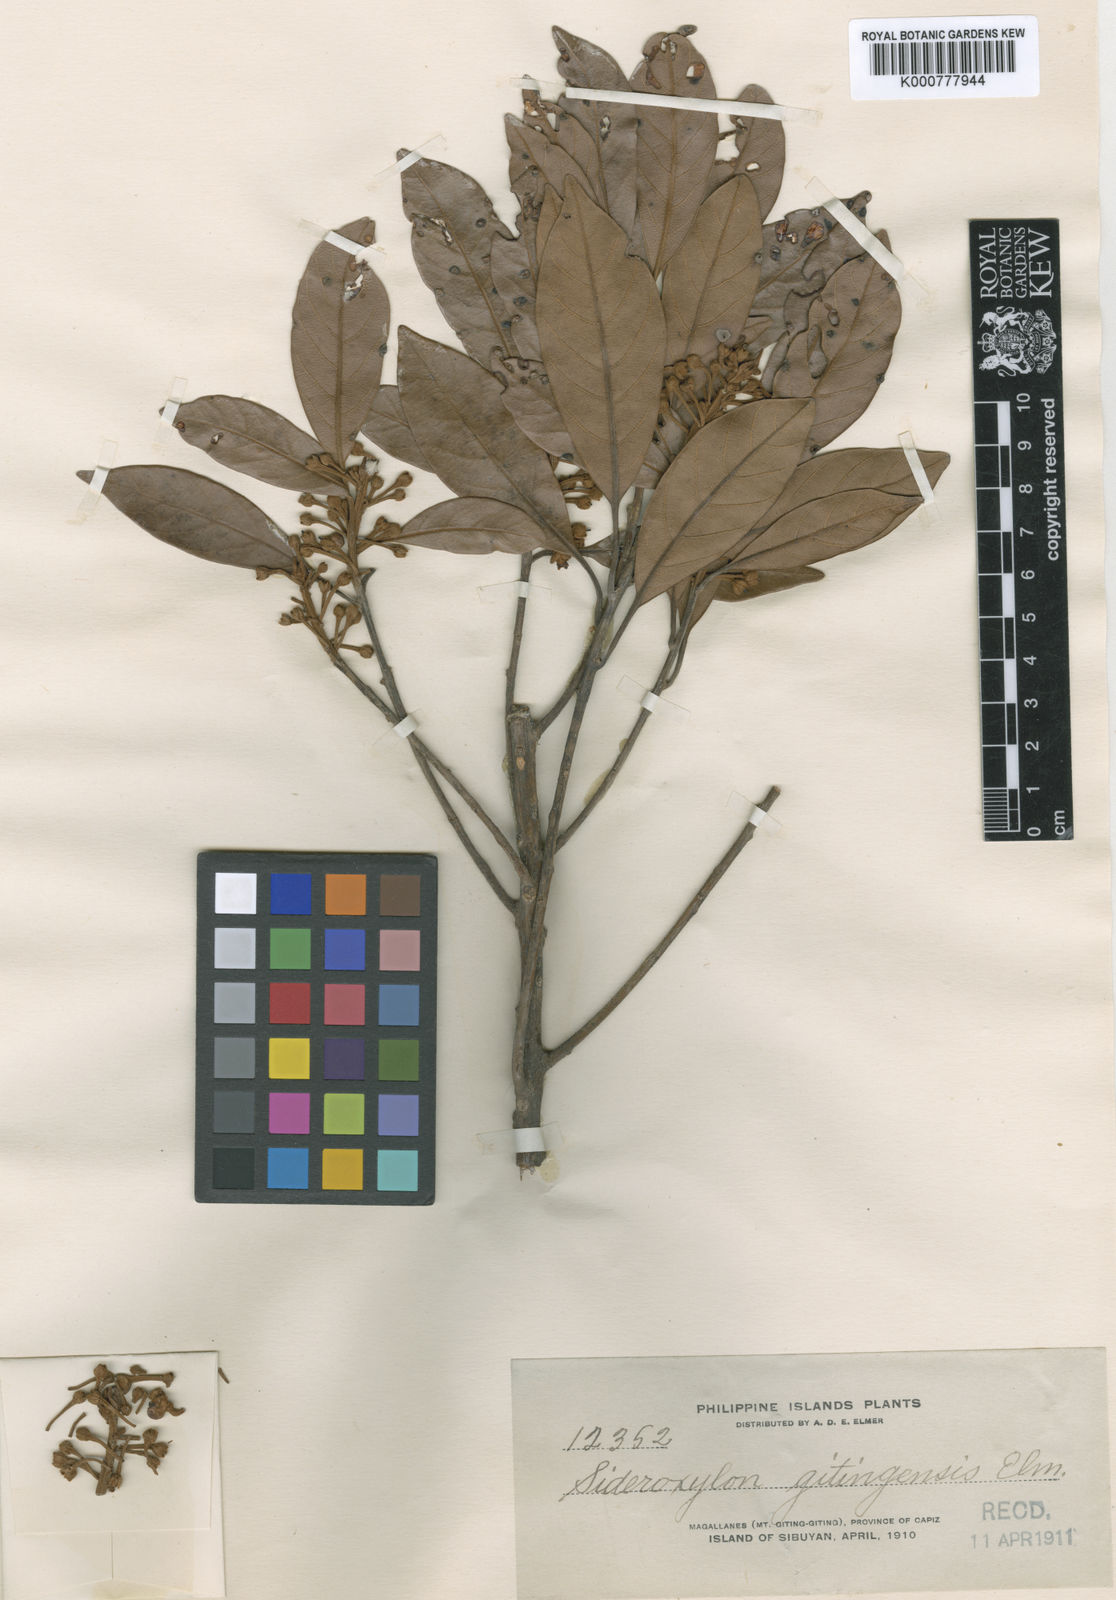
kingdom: Plantae
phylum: Tracheophyta
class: Magnoliopsida
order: Ericales
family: Sapotaceae
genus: Pleioluma
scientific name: Pleioluma firma
